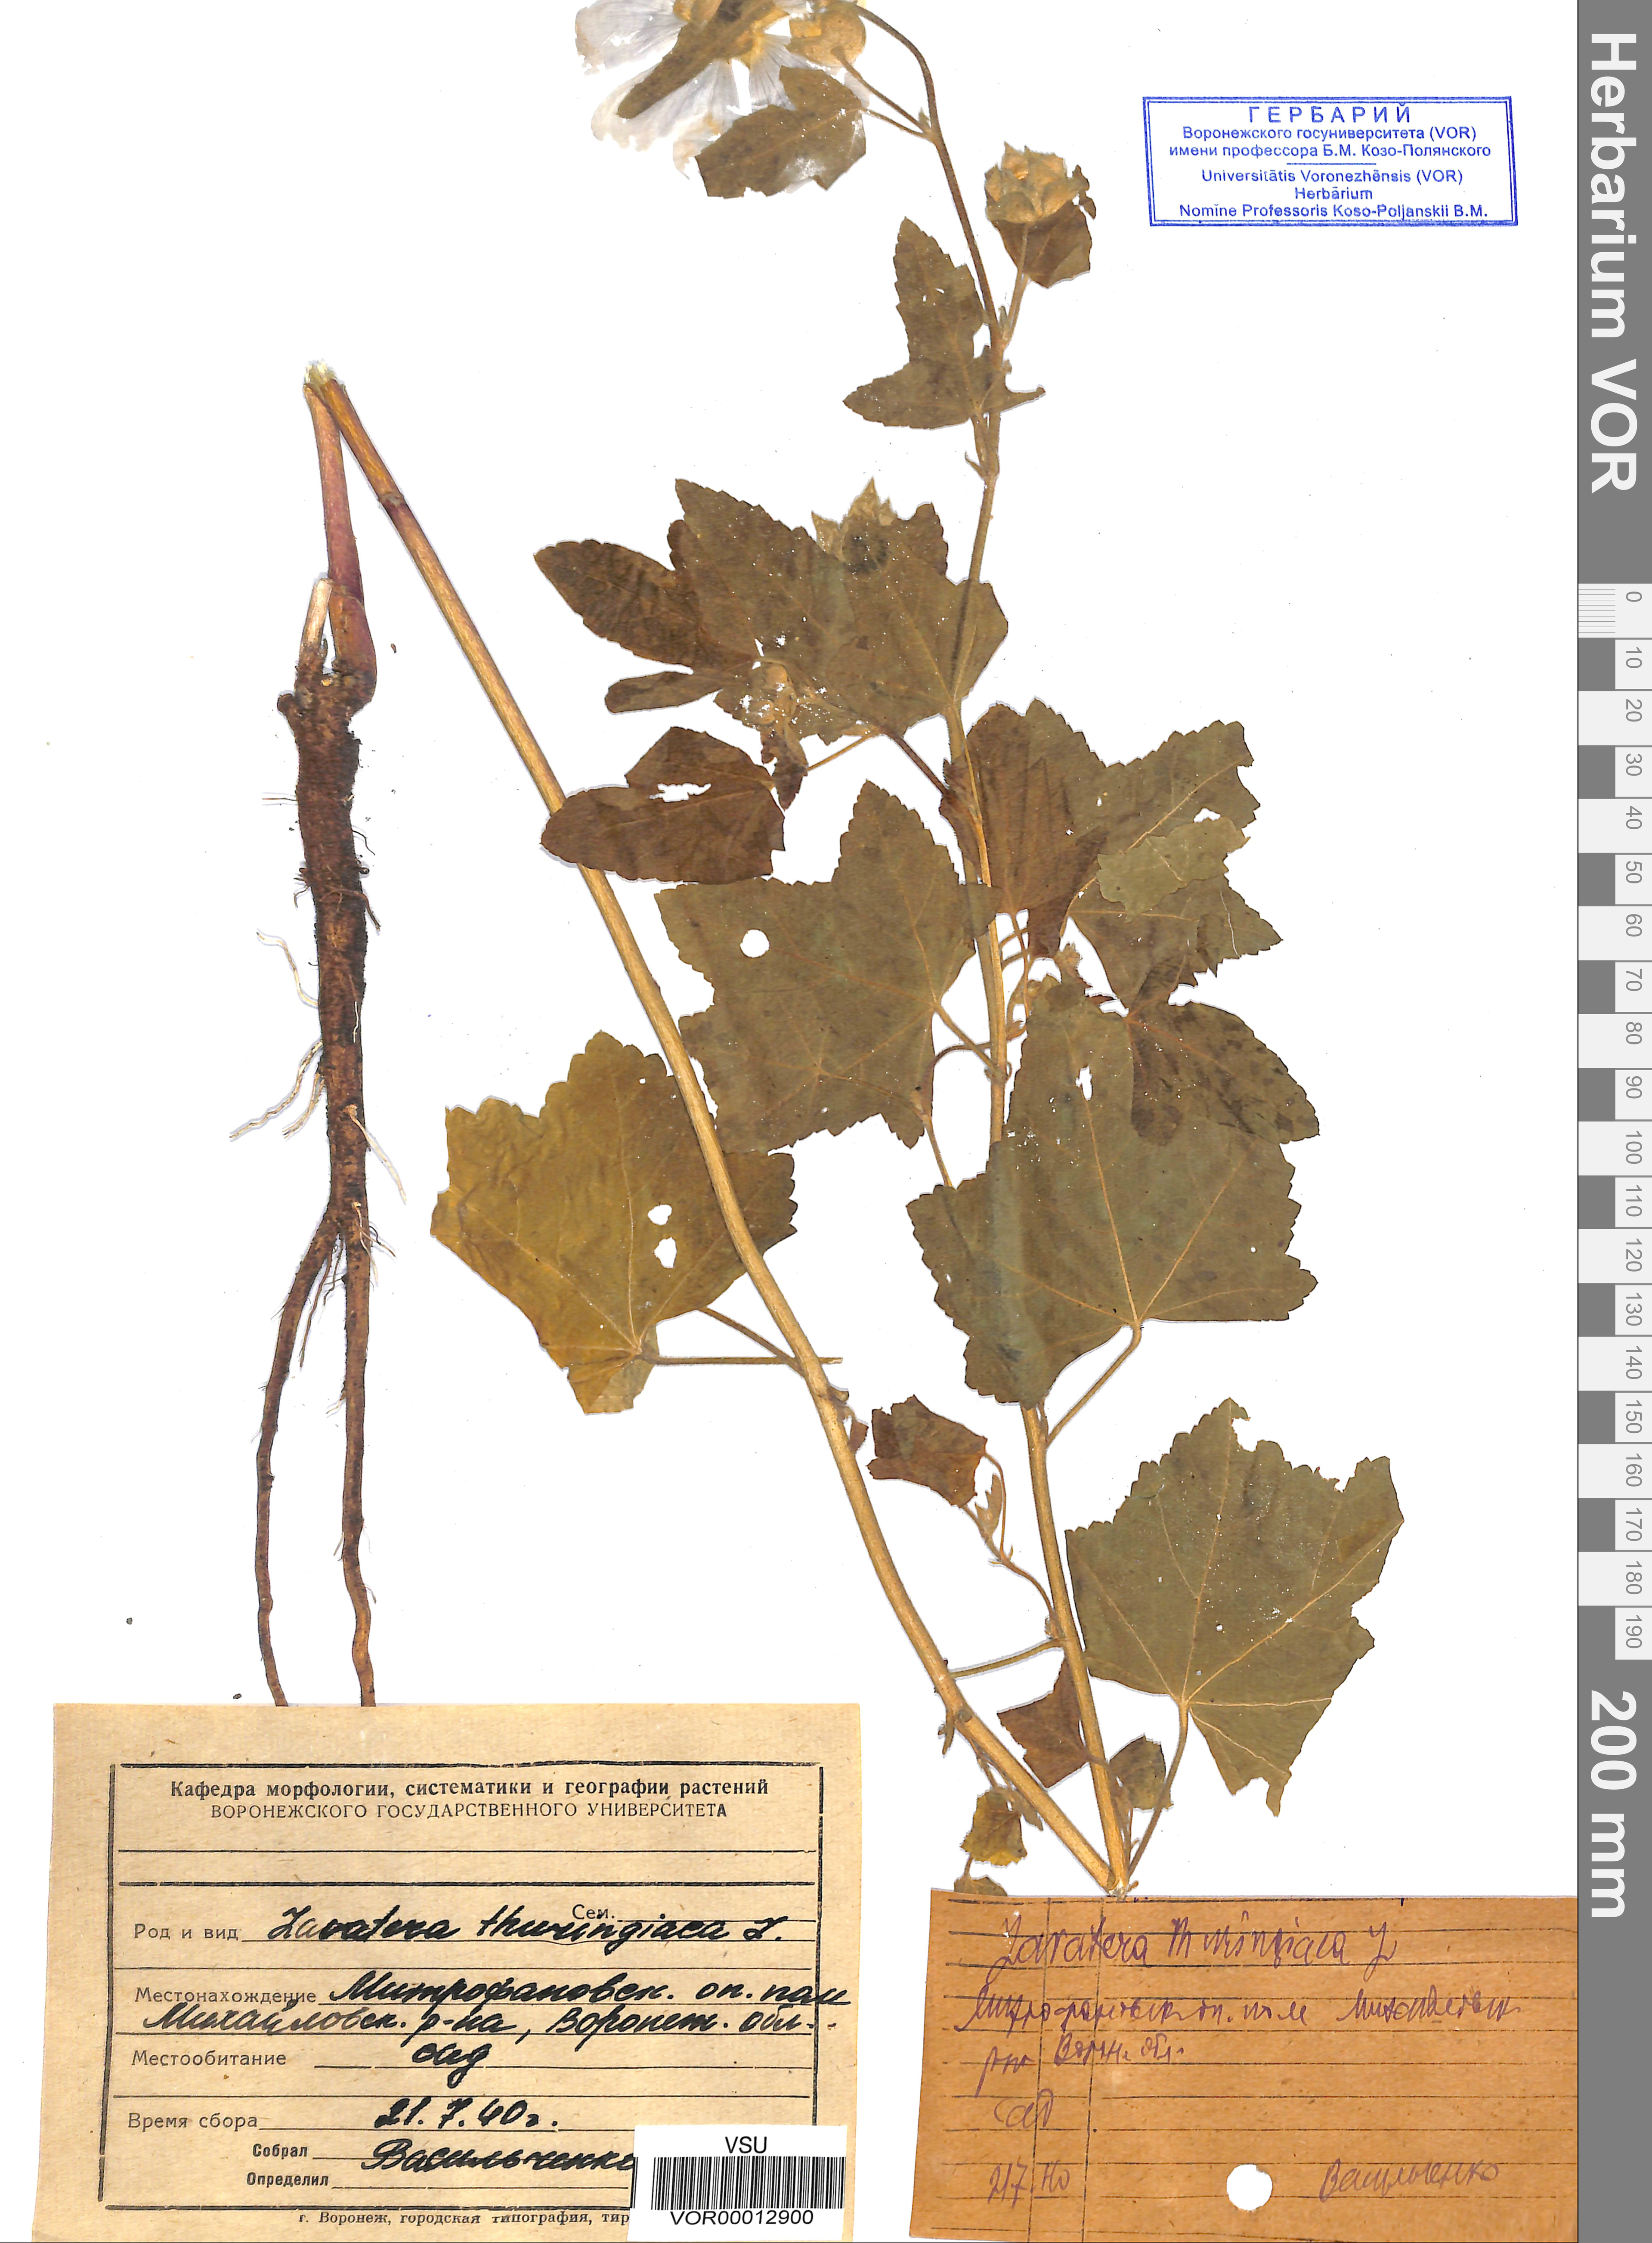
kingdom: Plantae
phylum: Tracheophyta
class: Magnoliopsida
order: Malvales
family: Malvaceae
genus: Malva
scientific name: Malva thuringiaca
